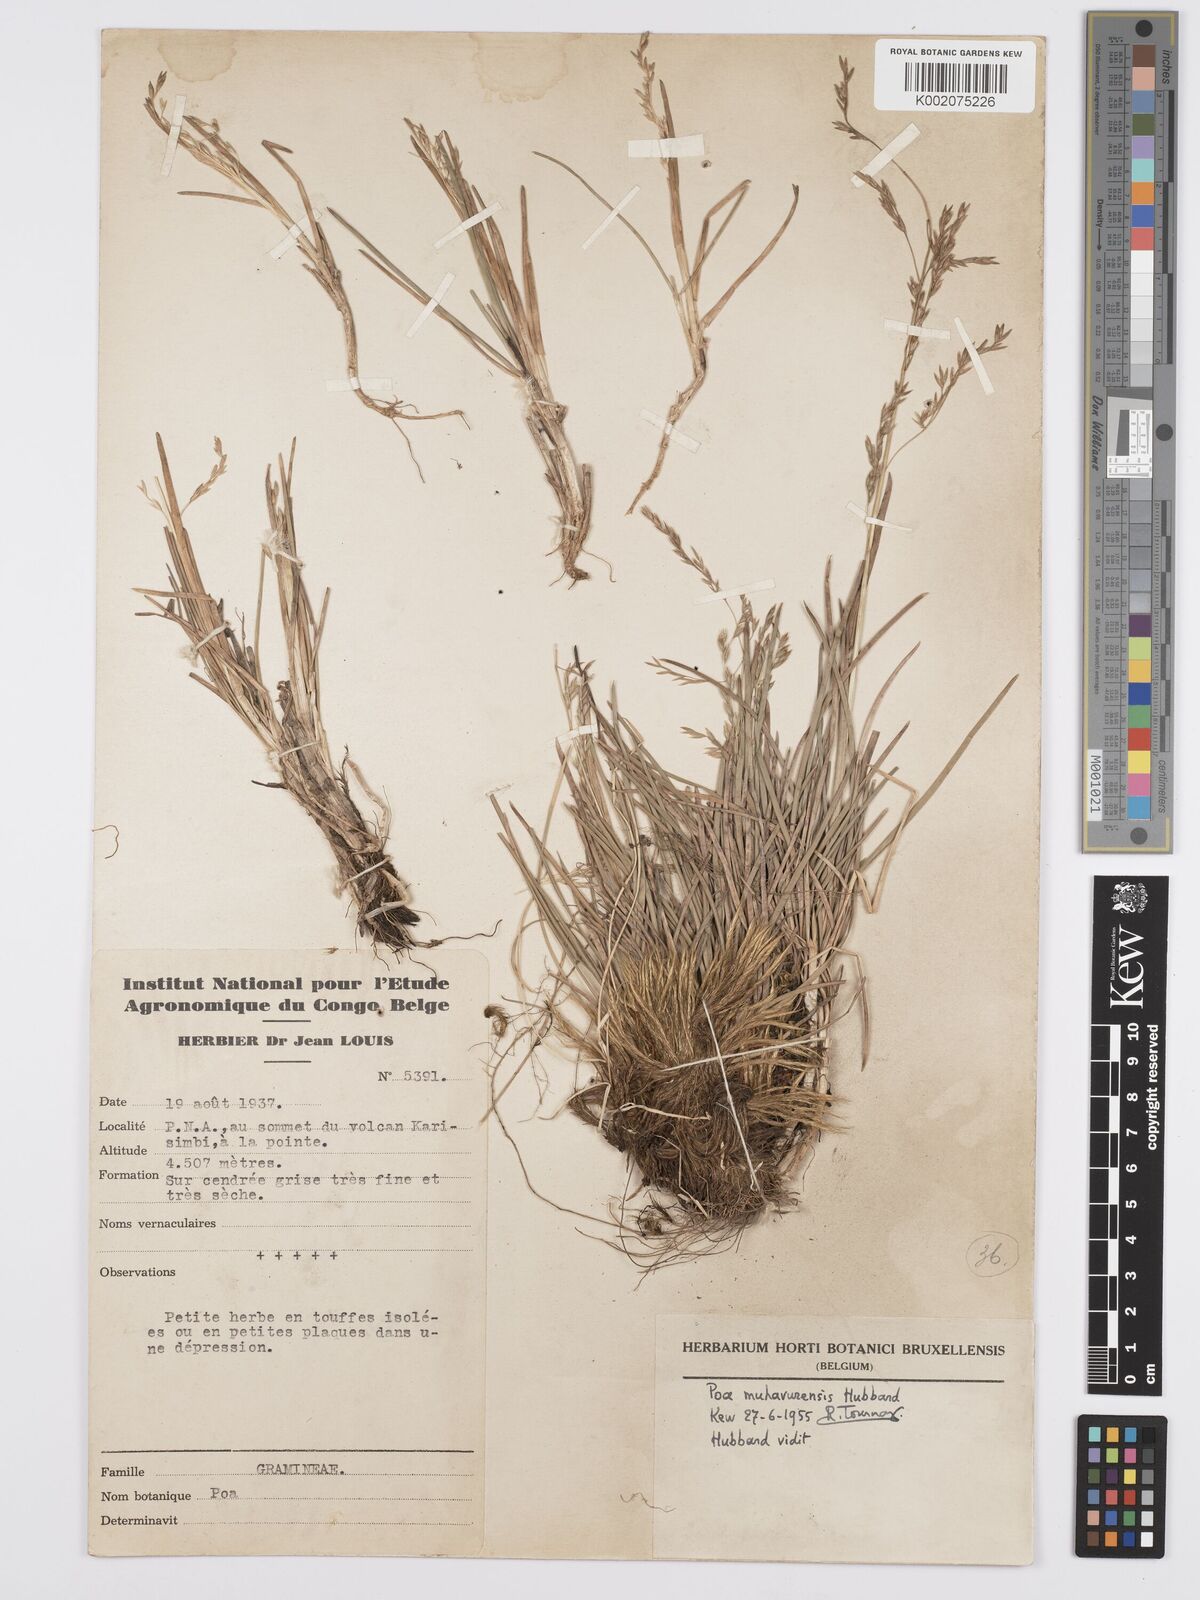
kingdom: Plantae
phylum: Tracheophyta
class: Liliopsida
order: Poales
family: Poaceae
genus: Poa
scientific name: Poa schimperiana
